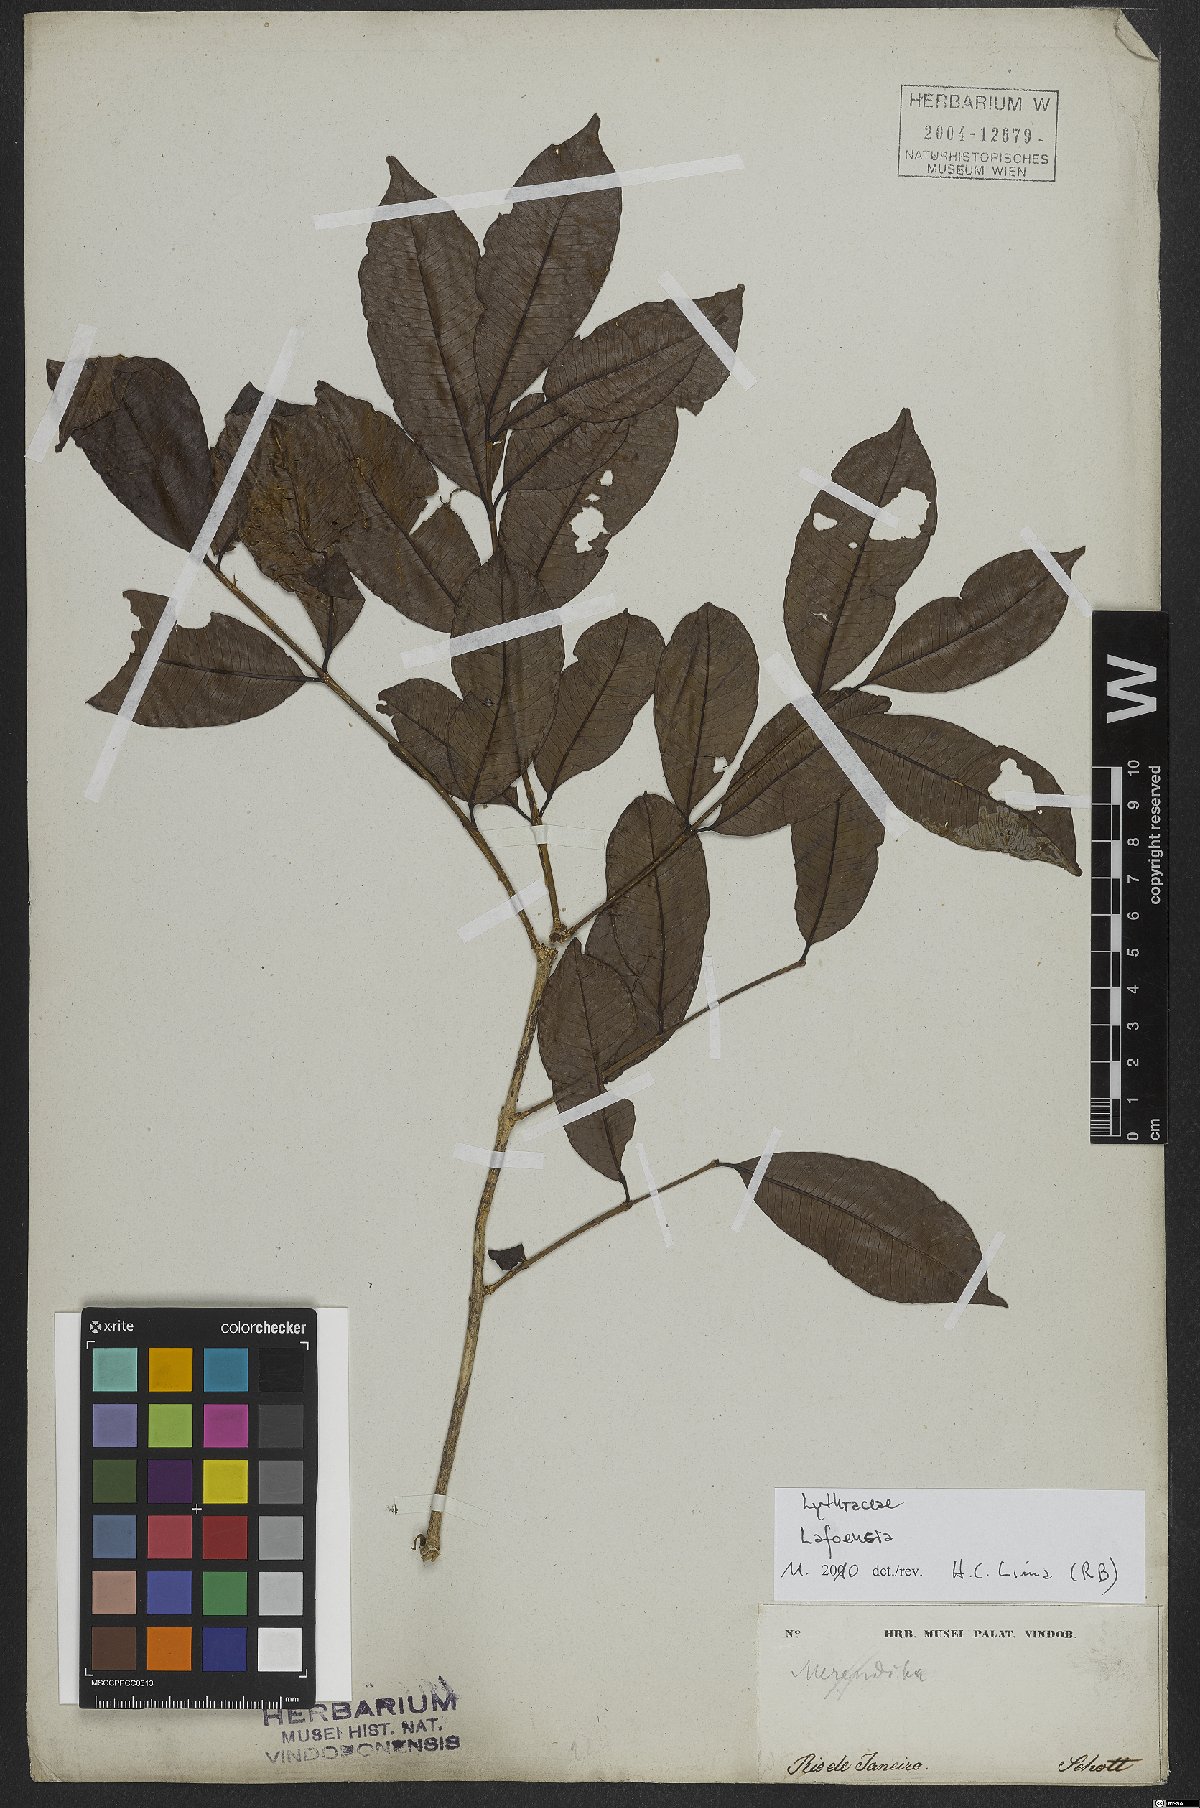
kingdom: Plantae
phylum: Tracheophyta
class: Magnoliopsida
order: Myrtales
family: Lythraceae
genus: Lafoensia
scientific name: Lafoensia vandelliana
